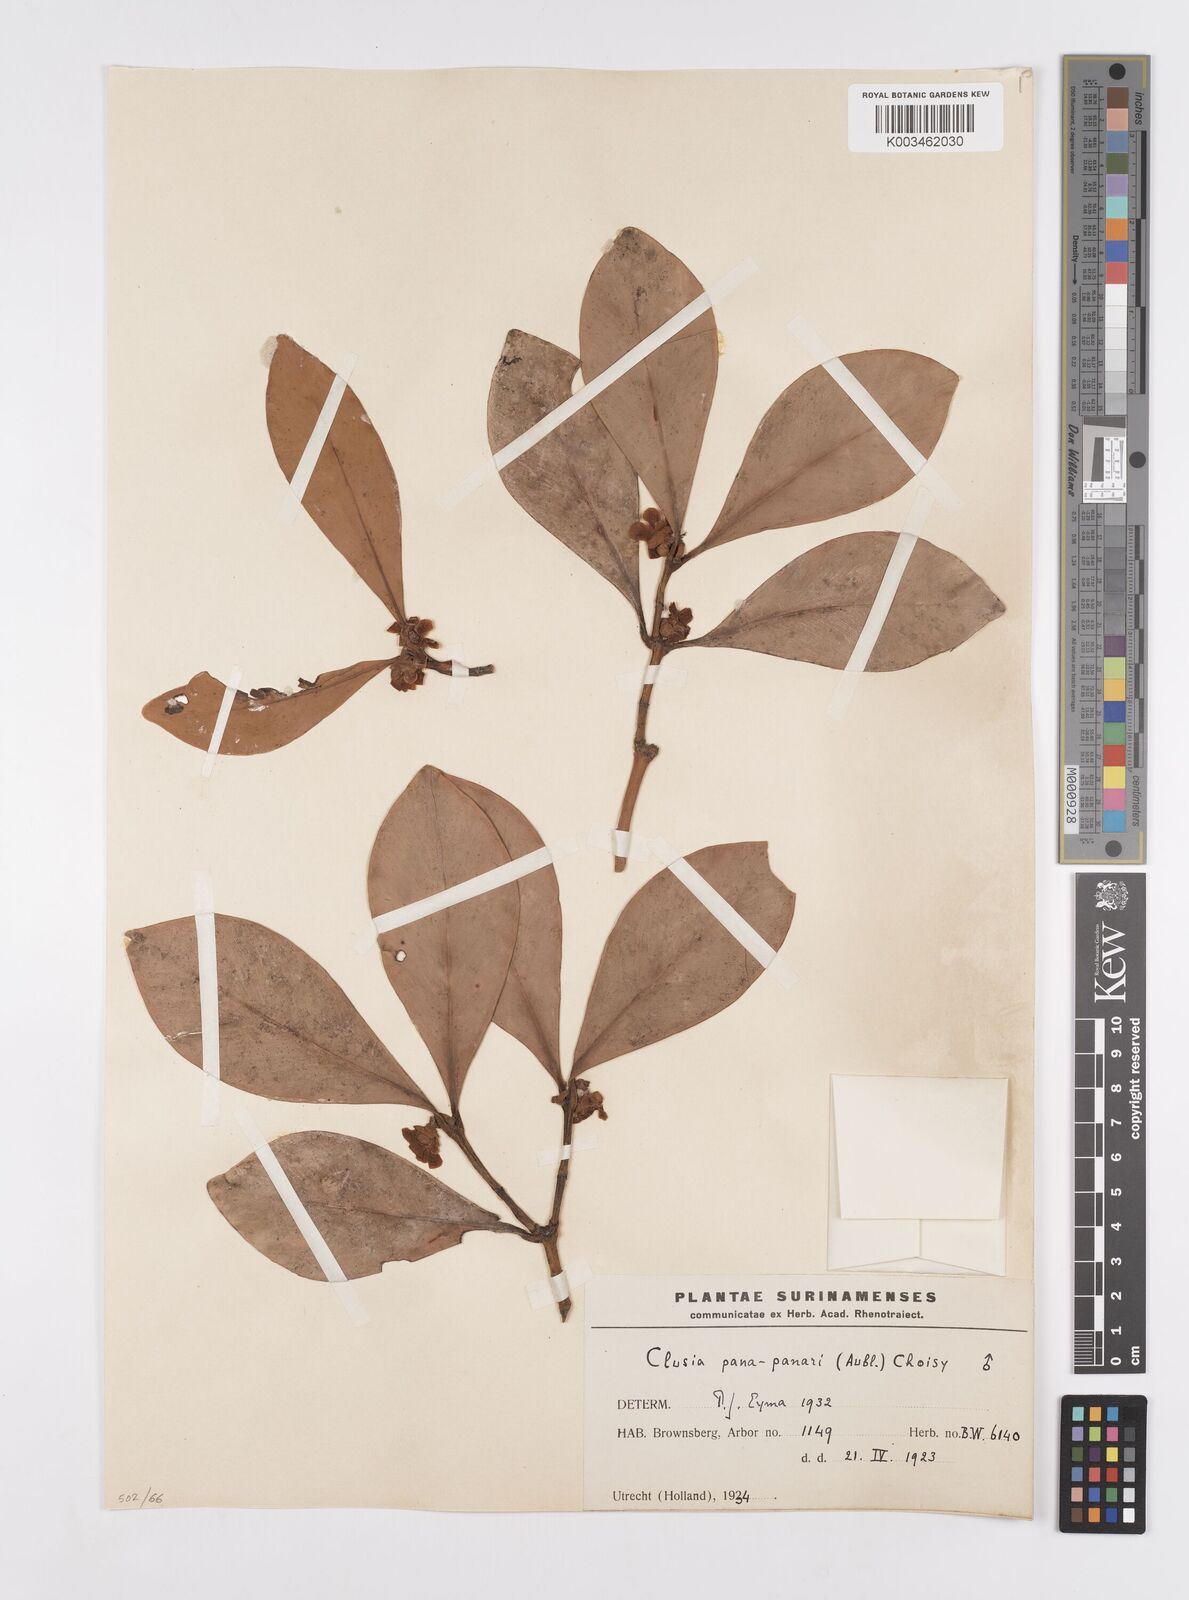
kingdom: Plantae
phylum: Tracheophyta
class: Magnoliopsida
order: Malpighiales
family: Clusiaceae
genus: Clusia
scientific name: Clusia panapanari
